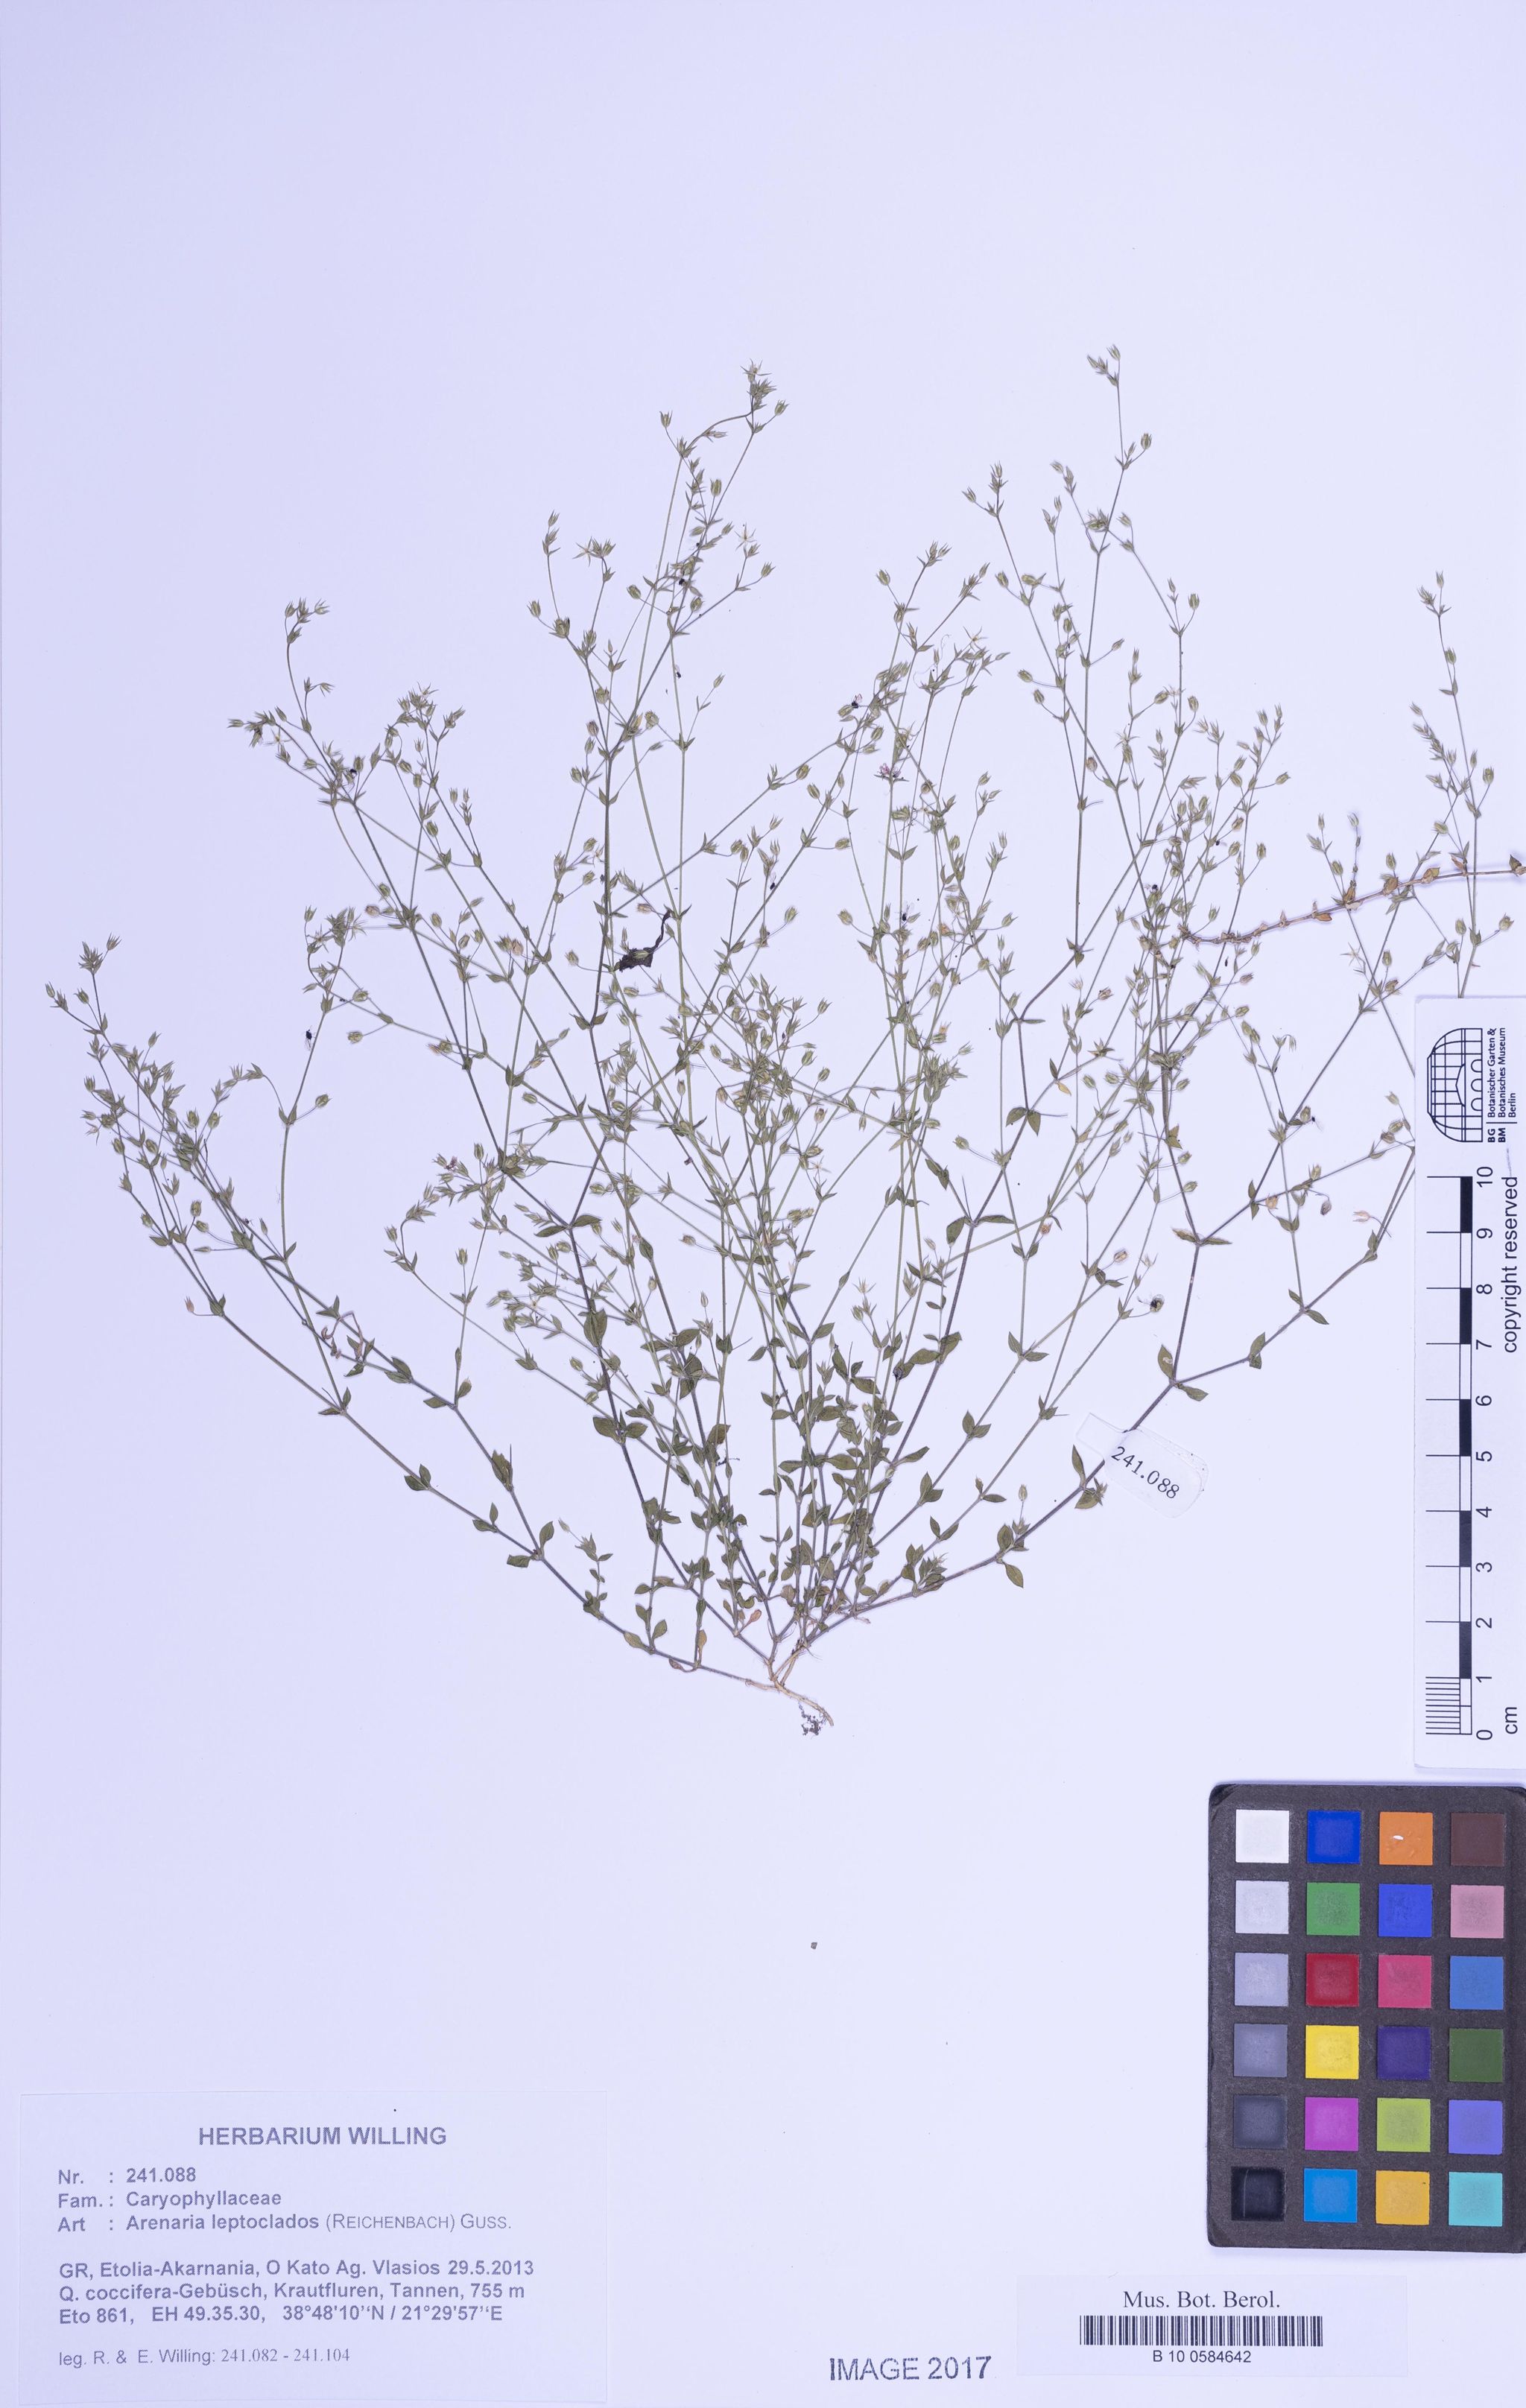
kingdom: Plantae
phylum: Tracheophyta
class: Magnoliopsida
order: Caryophyllales
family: Caryophyllaceae
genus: Arenaria
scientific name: Arenaria leptoclados
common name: Thyme-leaved sandwort
